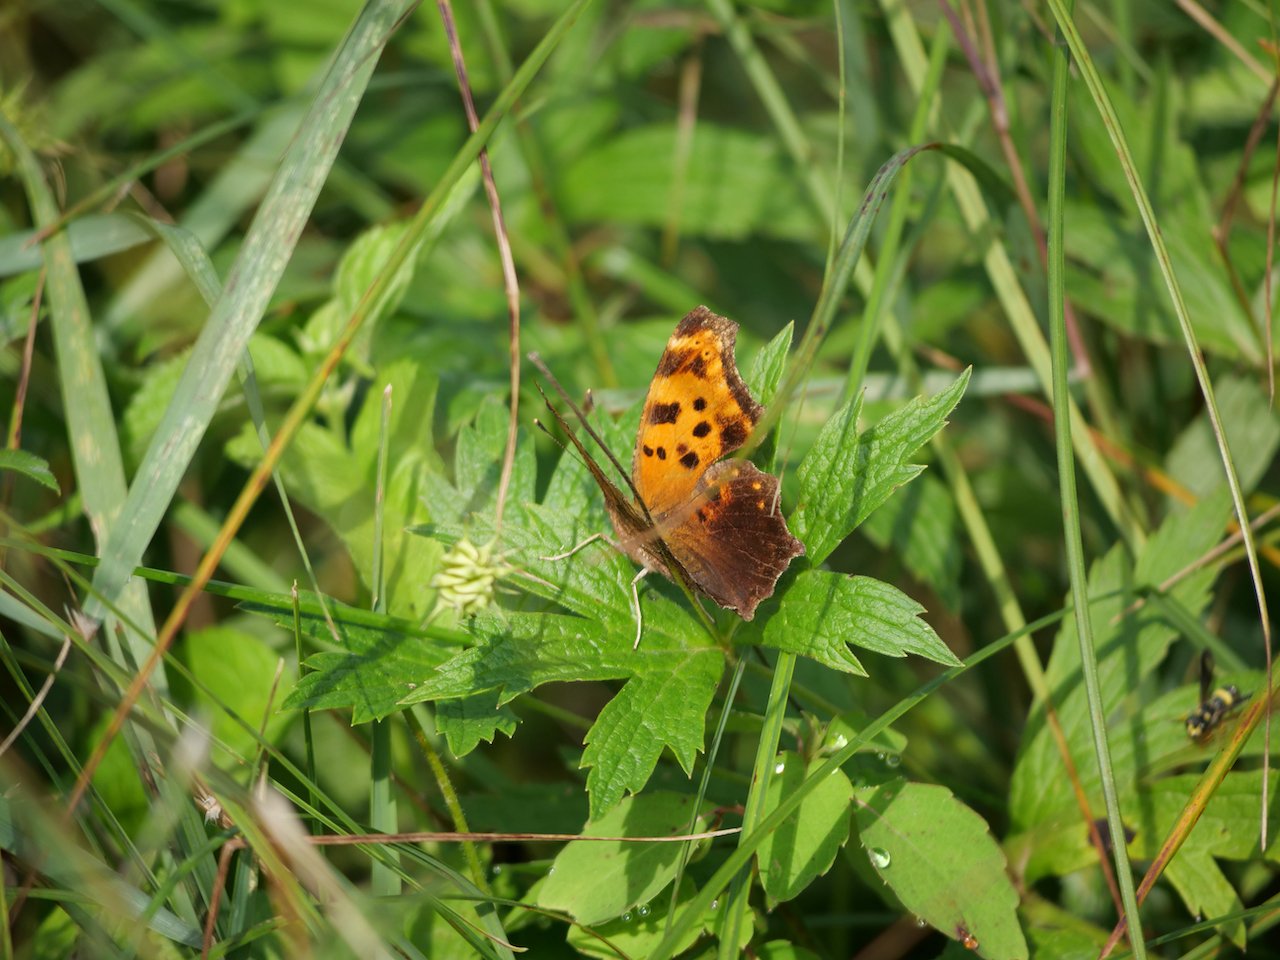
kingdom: Animalia
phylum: Arthropoda
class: Insecta
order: Lepidoptera
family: Nymphalidae
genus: Polygonia
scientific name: Polygonia comma
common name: Eastern Comma
